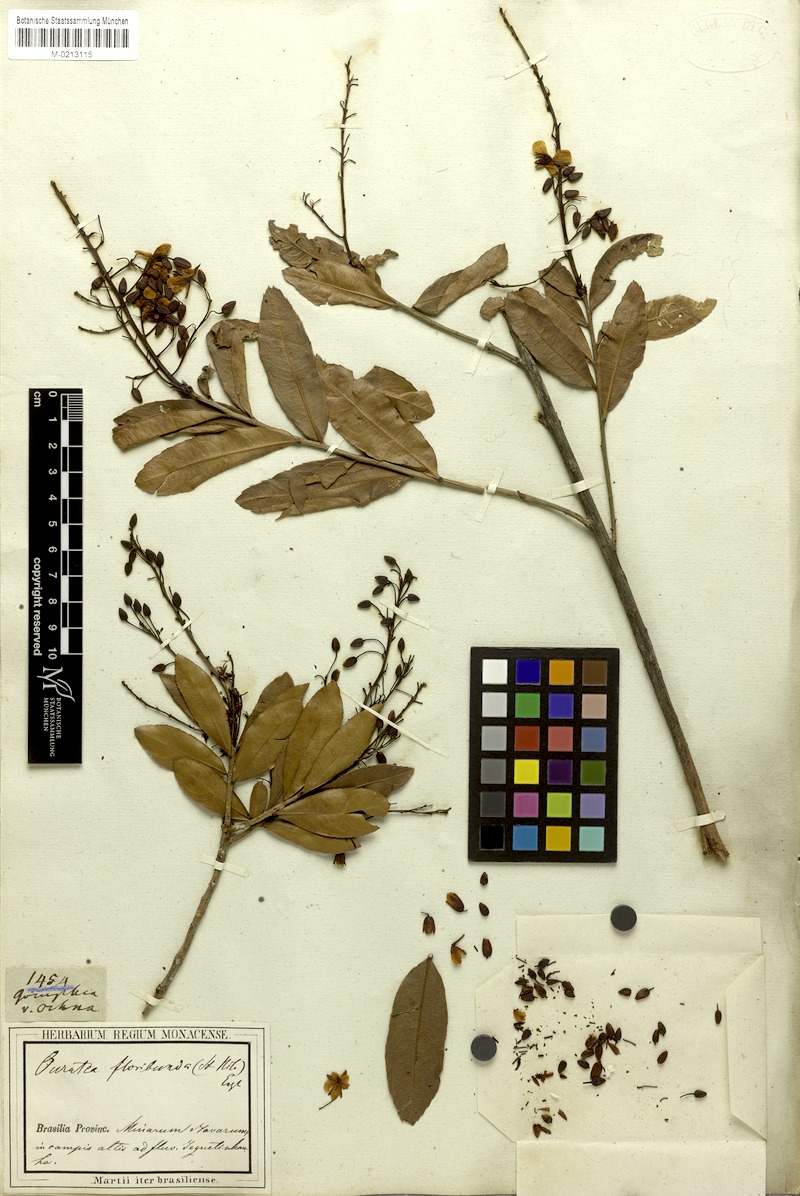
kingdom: Plantae
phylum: Tracheophyta
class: Magnoliopsida
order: Malpighiales
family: Ochnaceae
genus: Ouratea
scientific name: Ouratea floribunda
